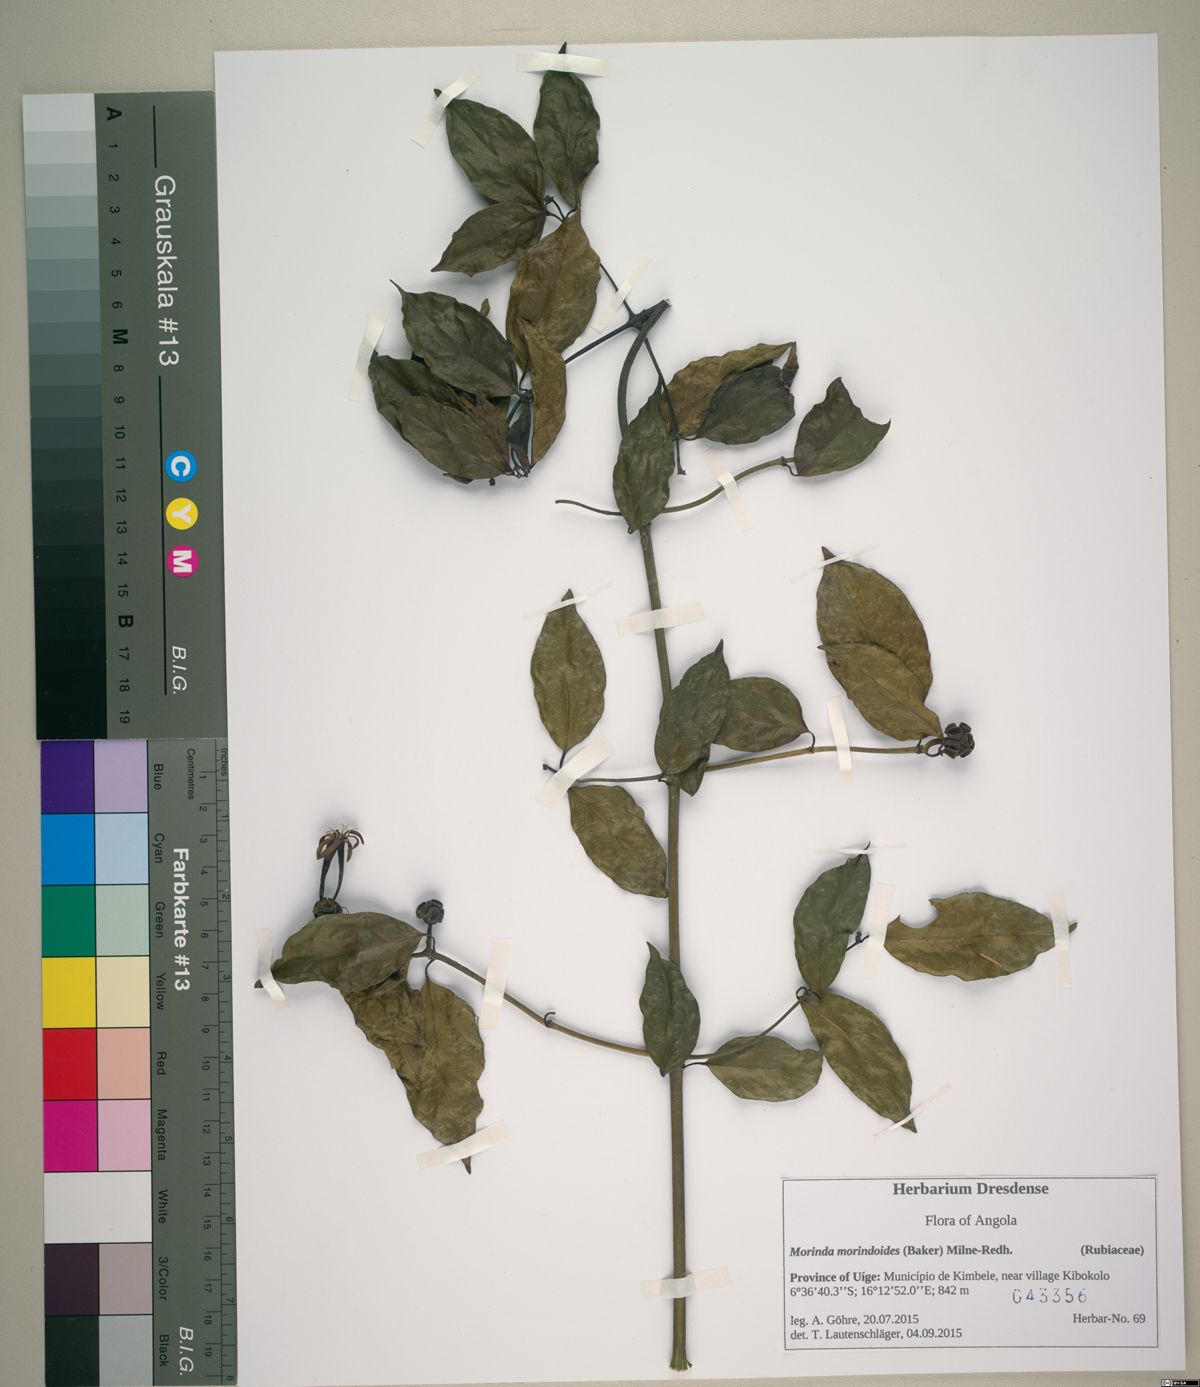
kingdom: Plantae
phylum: Tracheophyta
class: Magnoliopsida
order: Gentianales
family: Rubiaceae
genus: Morinda
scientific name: Morinda morindoides
